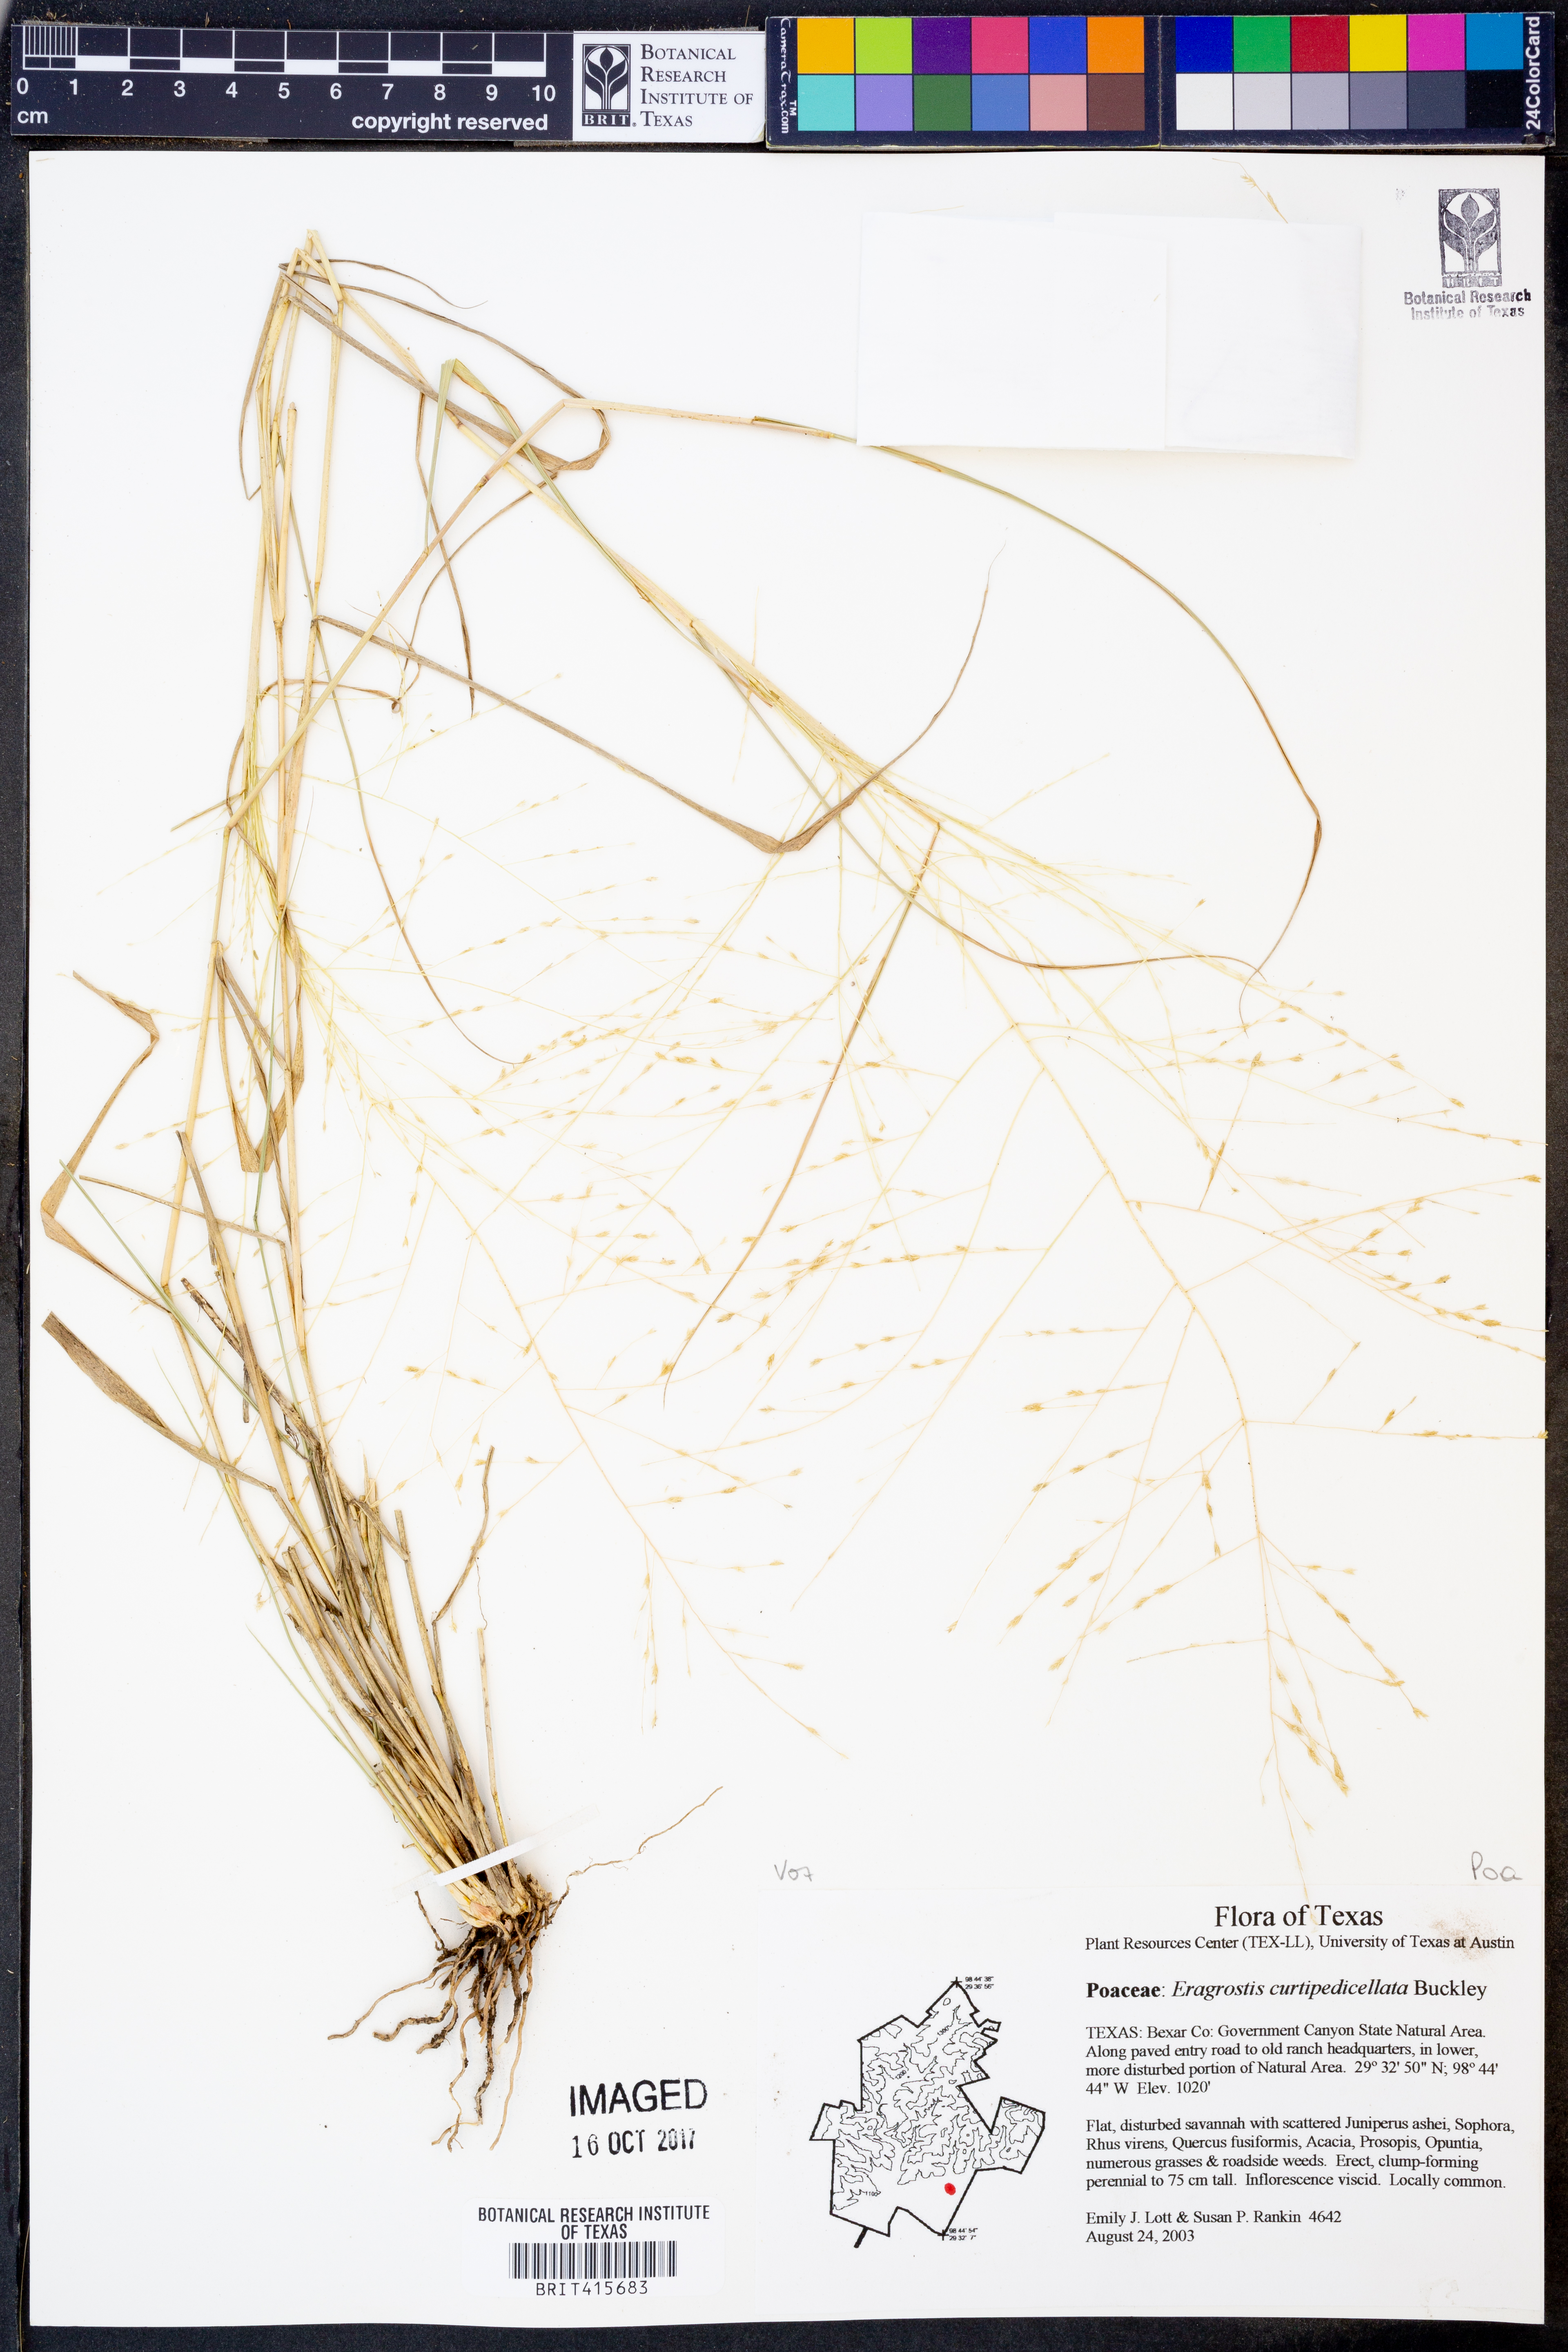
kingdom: Plantae
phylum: Tracheophyta
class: Liliopsida
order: Poales
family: Poaceae
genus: Eragrostis
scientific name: Eragrostis curtipedicellata
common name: Gummy love grass
